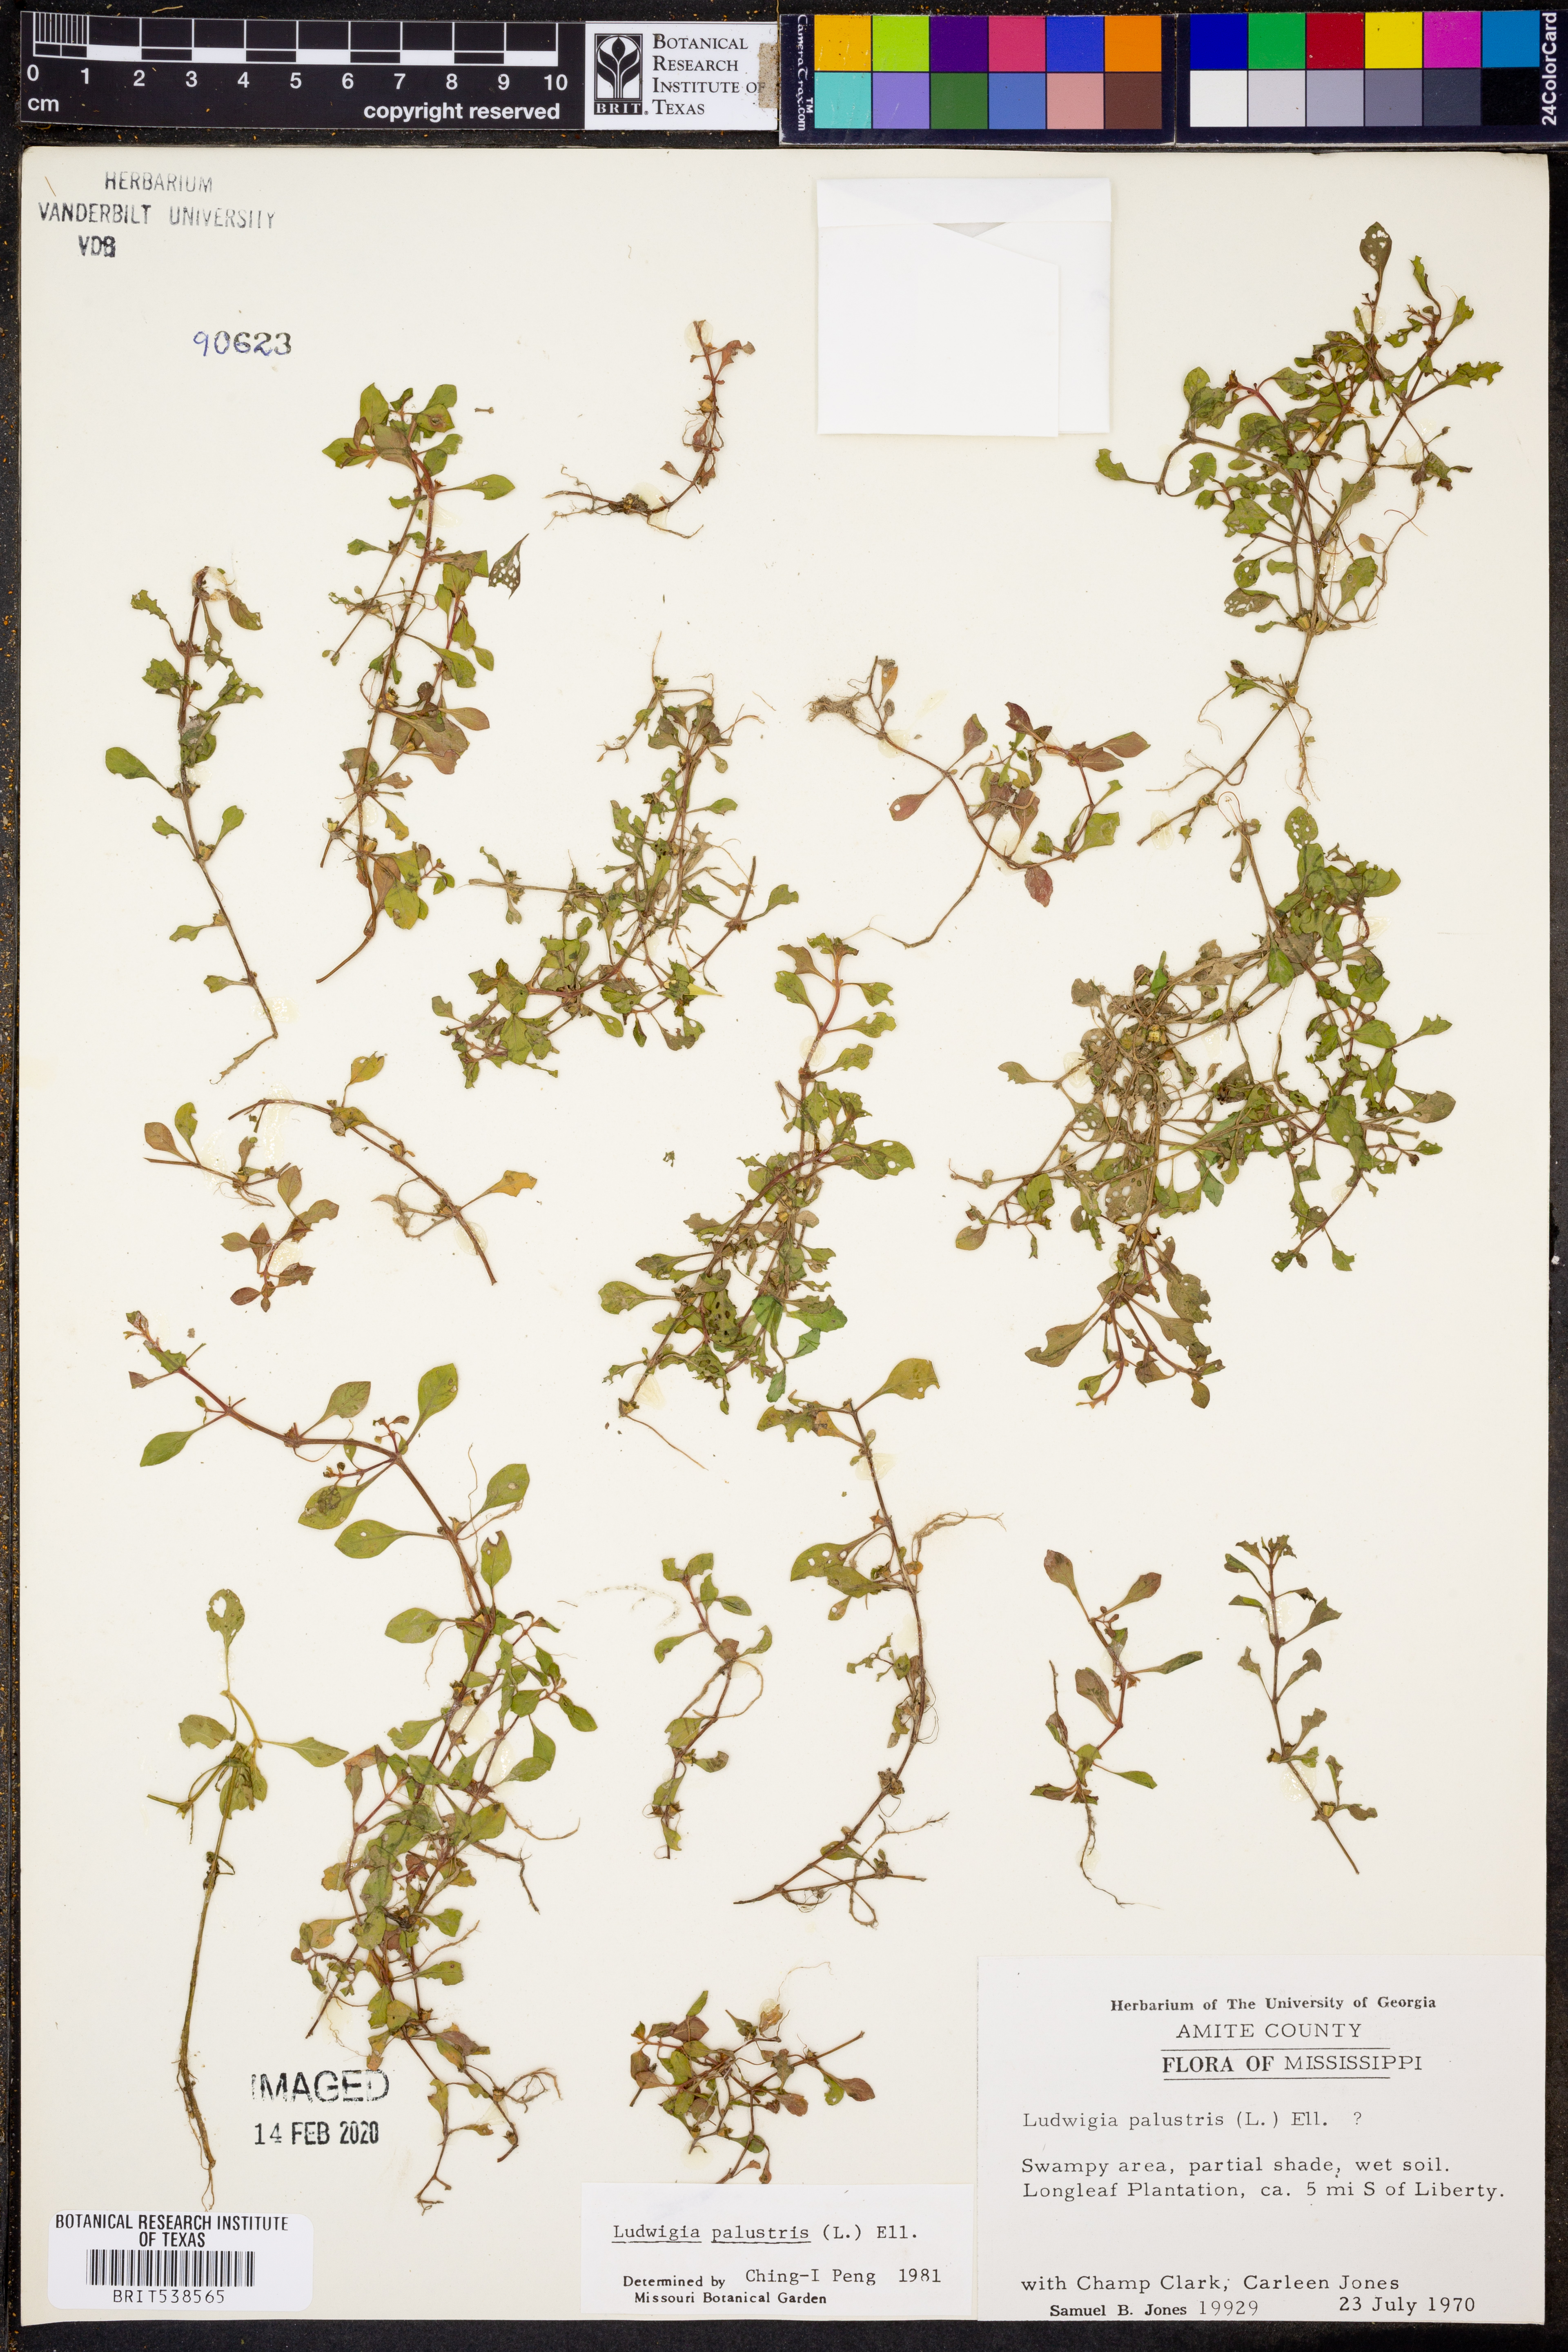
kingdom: Plantae
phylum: Tracheophyta
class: Magnoliopsida
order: Myrtales
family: Onagraceae
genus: Ludwigia
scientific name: Ludwigia palustris
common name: Hampshire-purslane
